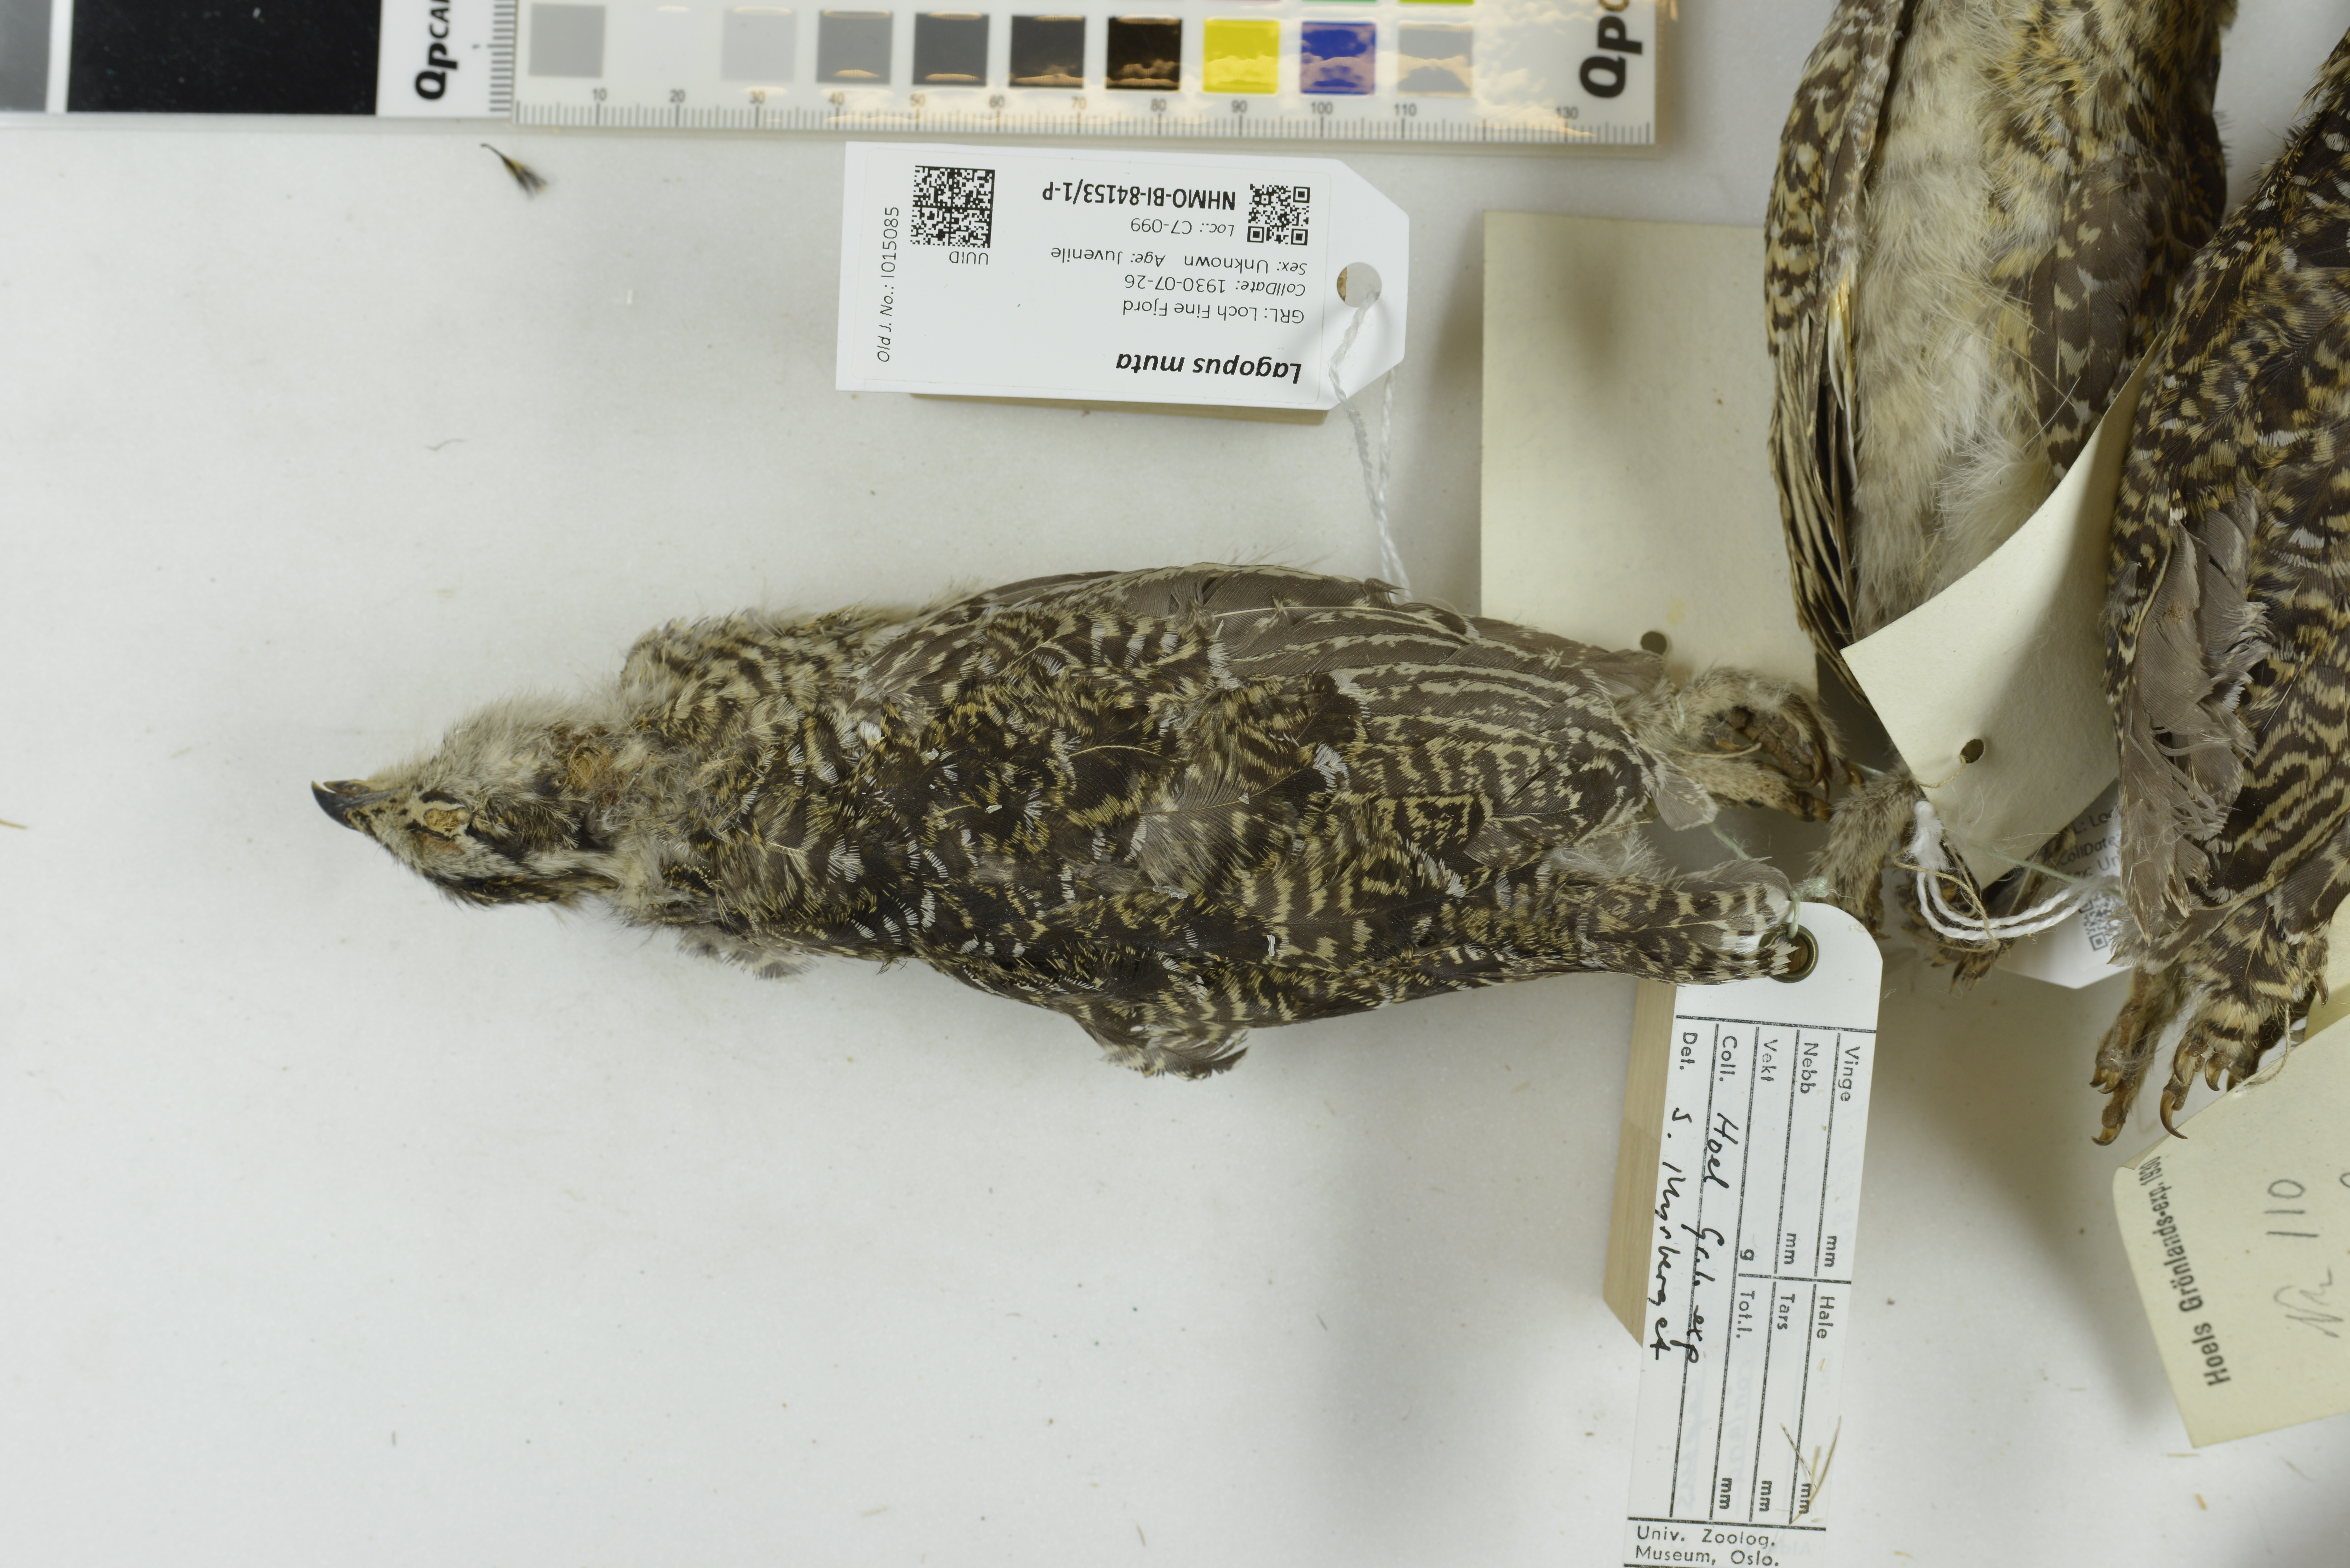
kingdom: Animalia
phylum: Chordata
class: Aves
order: Galliformes
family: Phasianidae
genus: Lagopus
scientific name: Lagopus muta
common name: Rock ptarmigan
